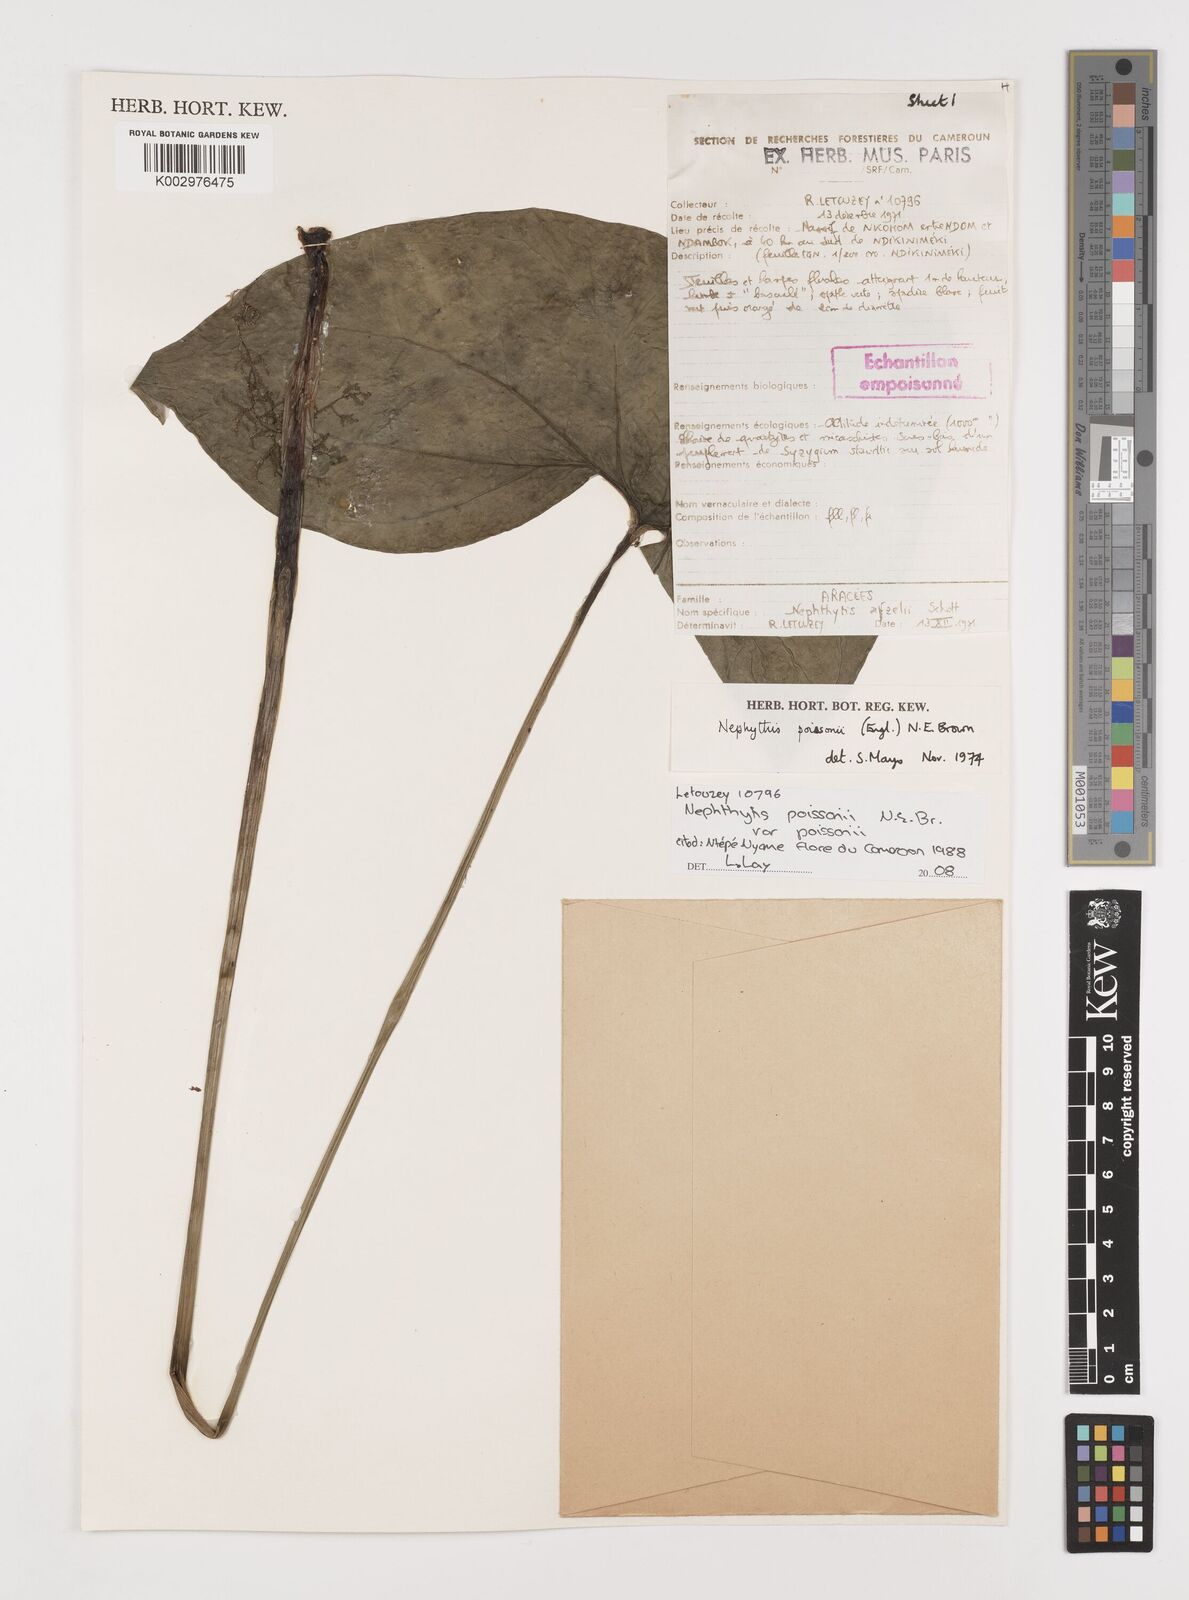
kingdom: Plantae
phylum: Tracheophyta
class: Liliopsida
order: Alismatales
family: Araceae
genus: Nephthytis
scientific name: Nephthytis poissonii
